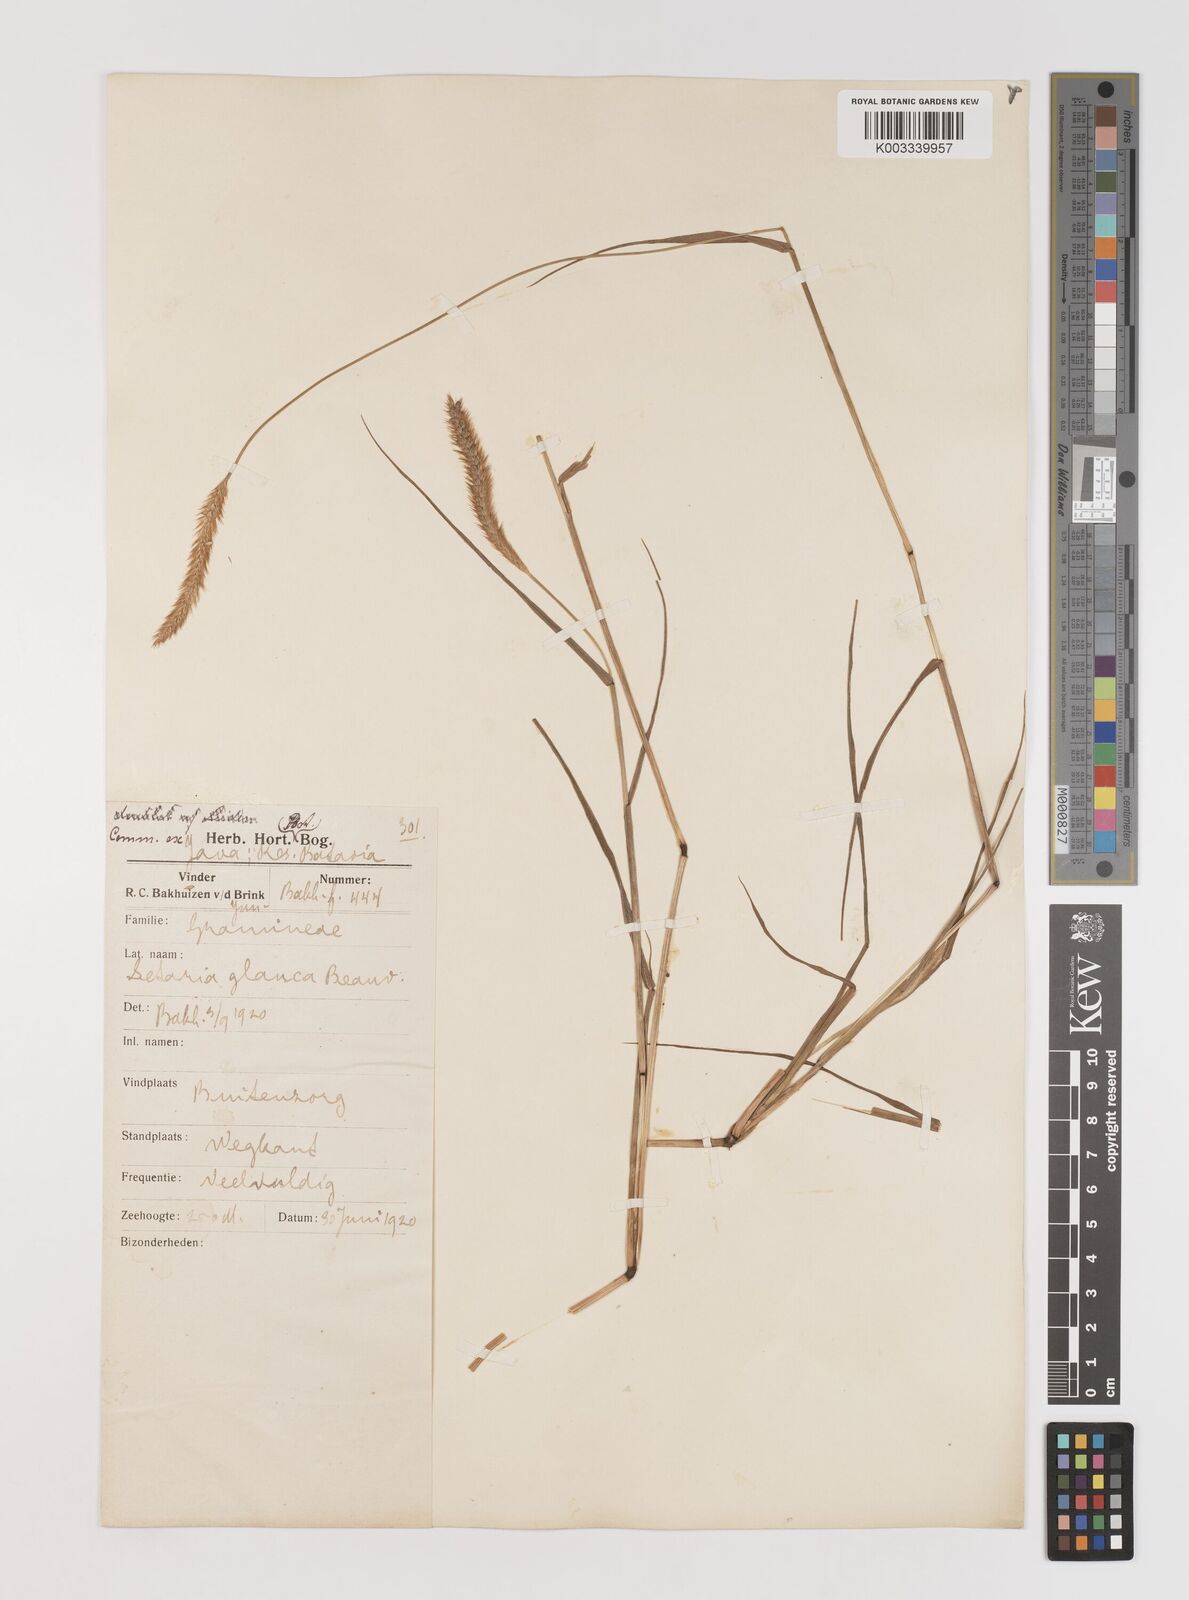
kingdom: Plantae
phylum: Tracheophyta
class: Liliopsida
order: Poales
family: Poaceae
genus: Setaria
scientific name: Setaria parviflora
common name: Knotroot bristle-grass
